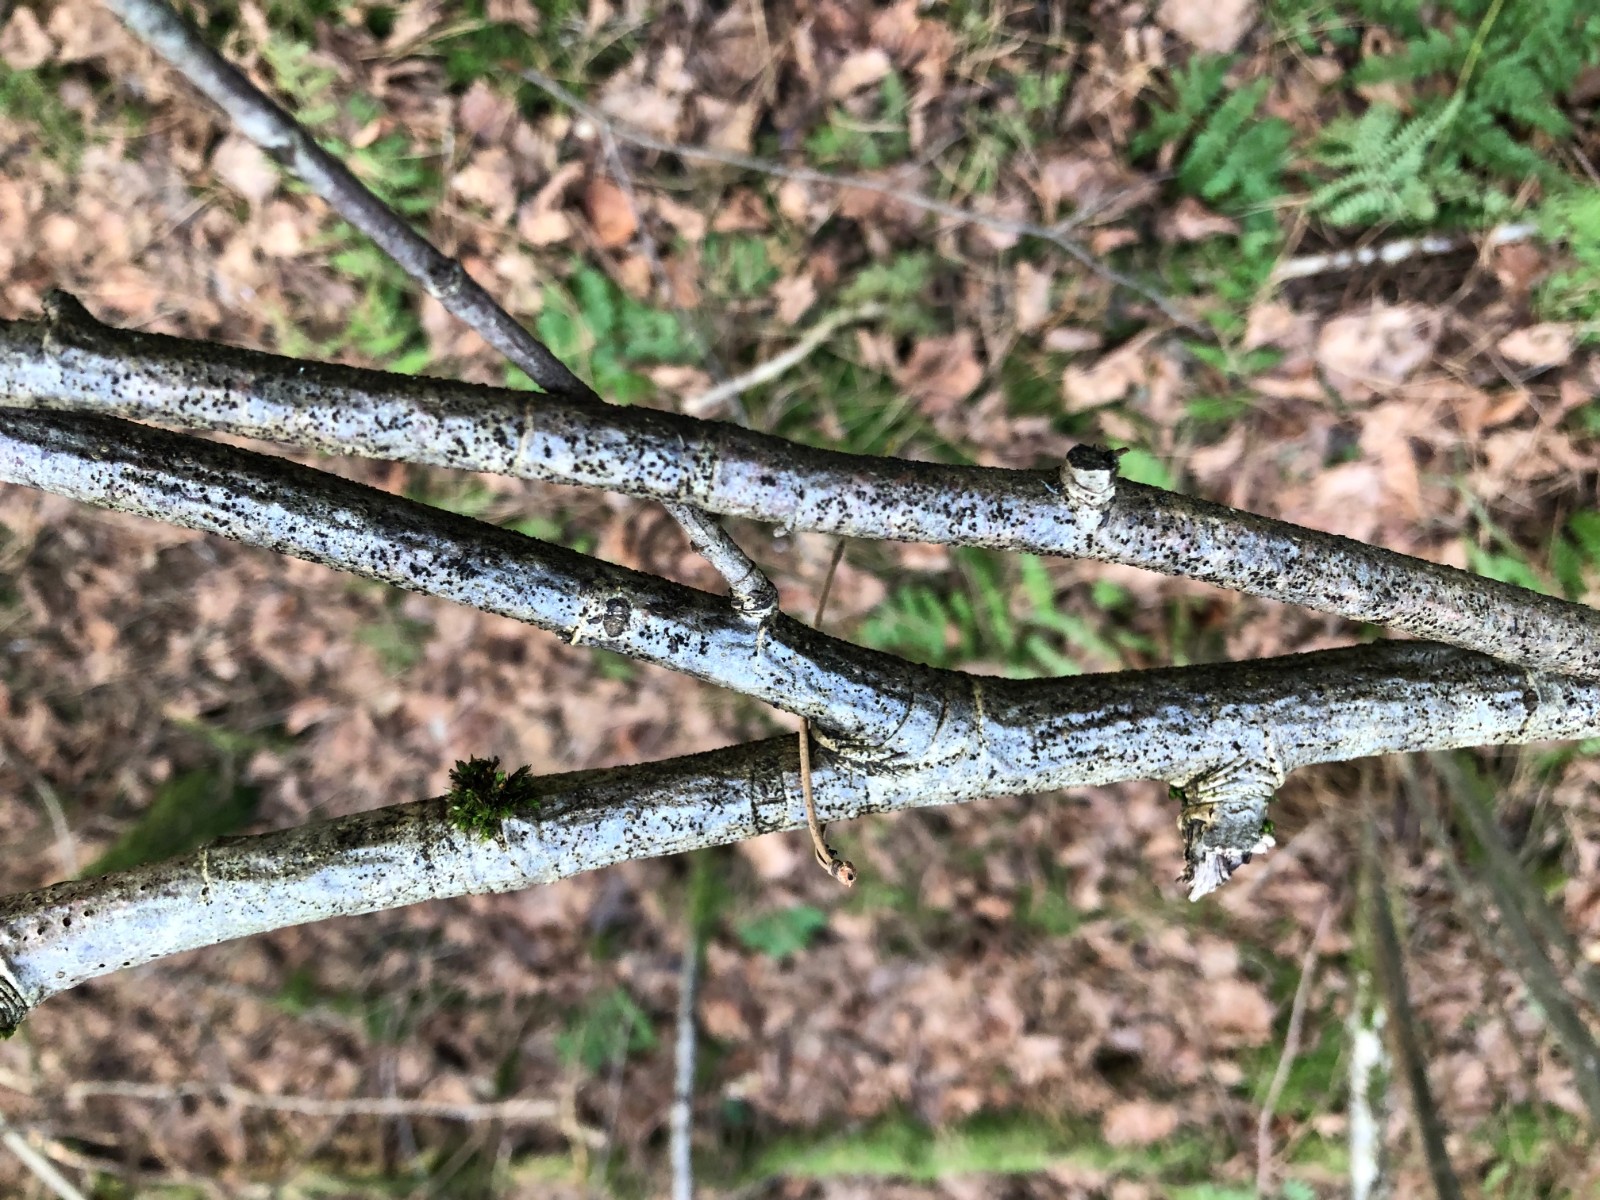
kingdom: Fungi
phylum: Ascomycota
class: Leotiomycetes
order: Helotiales
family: Dermateaceae
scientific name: Dermateaceae
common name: gråskivefamilien
